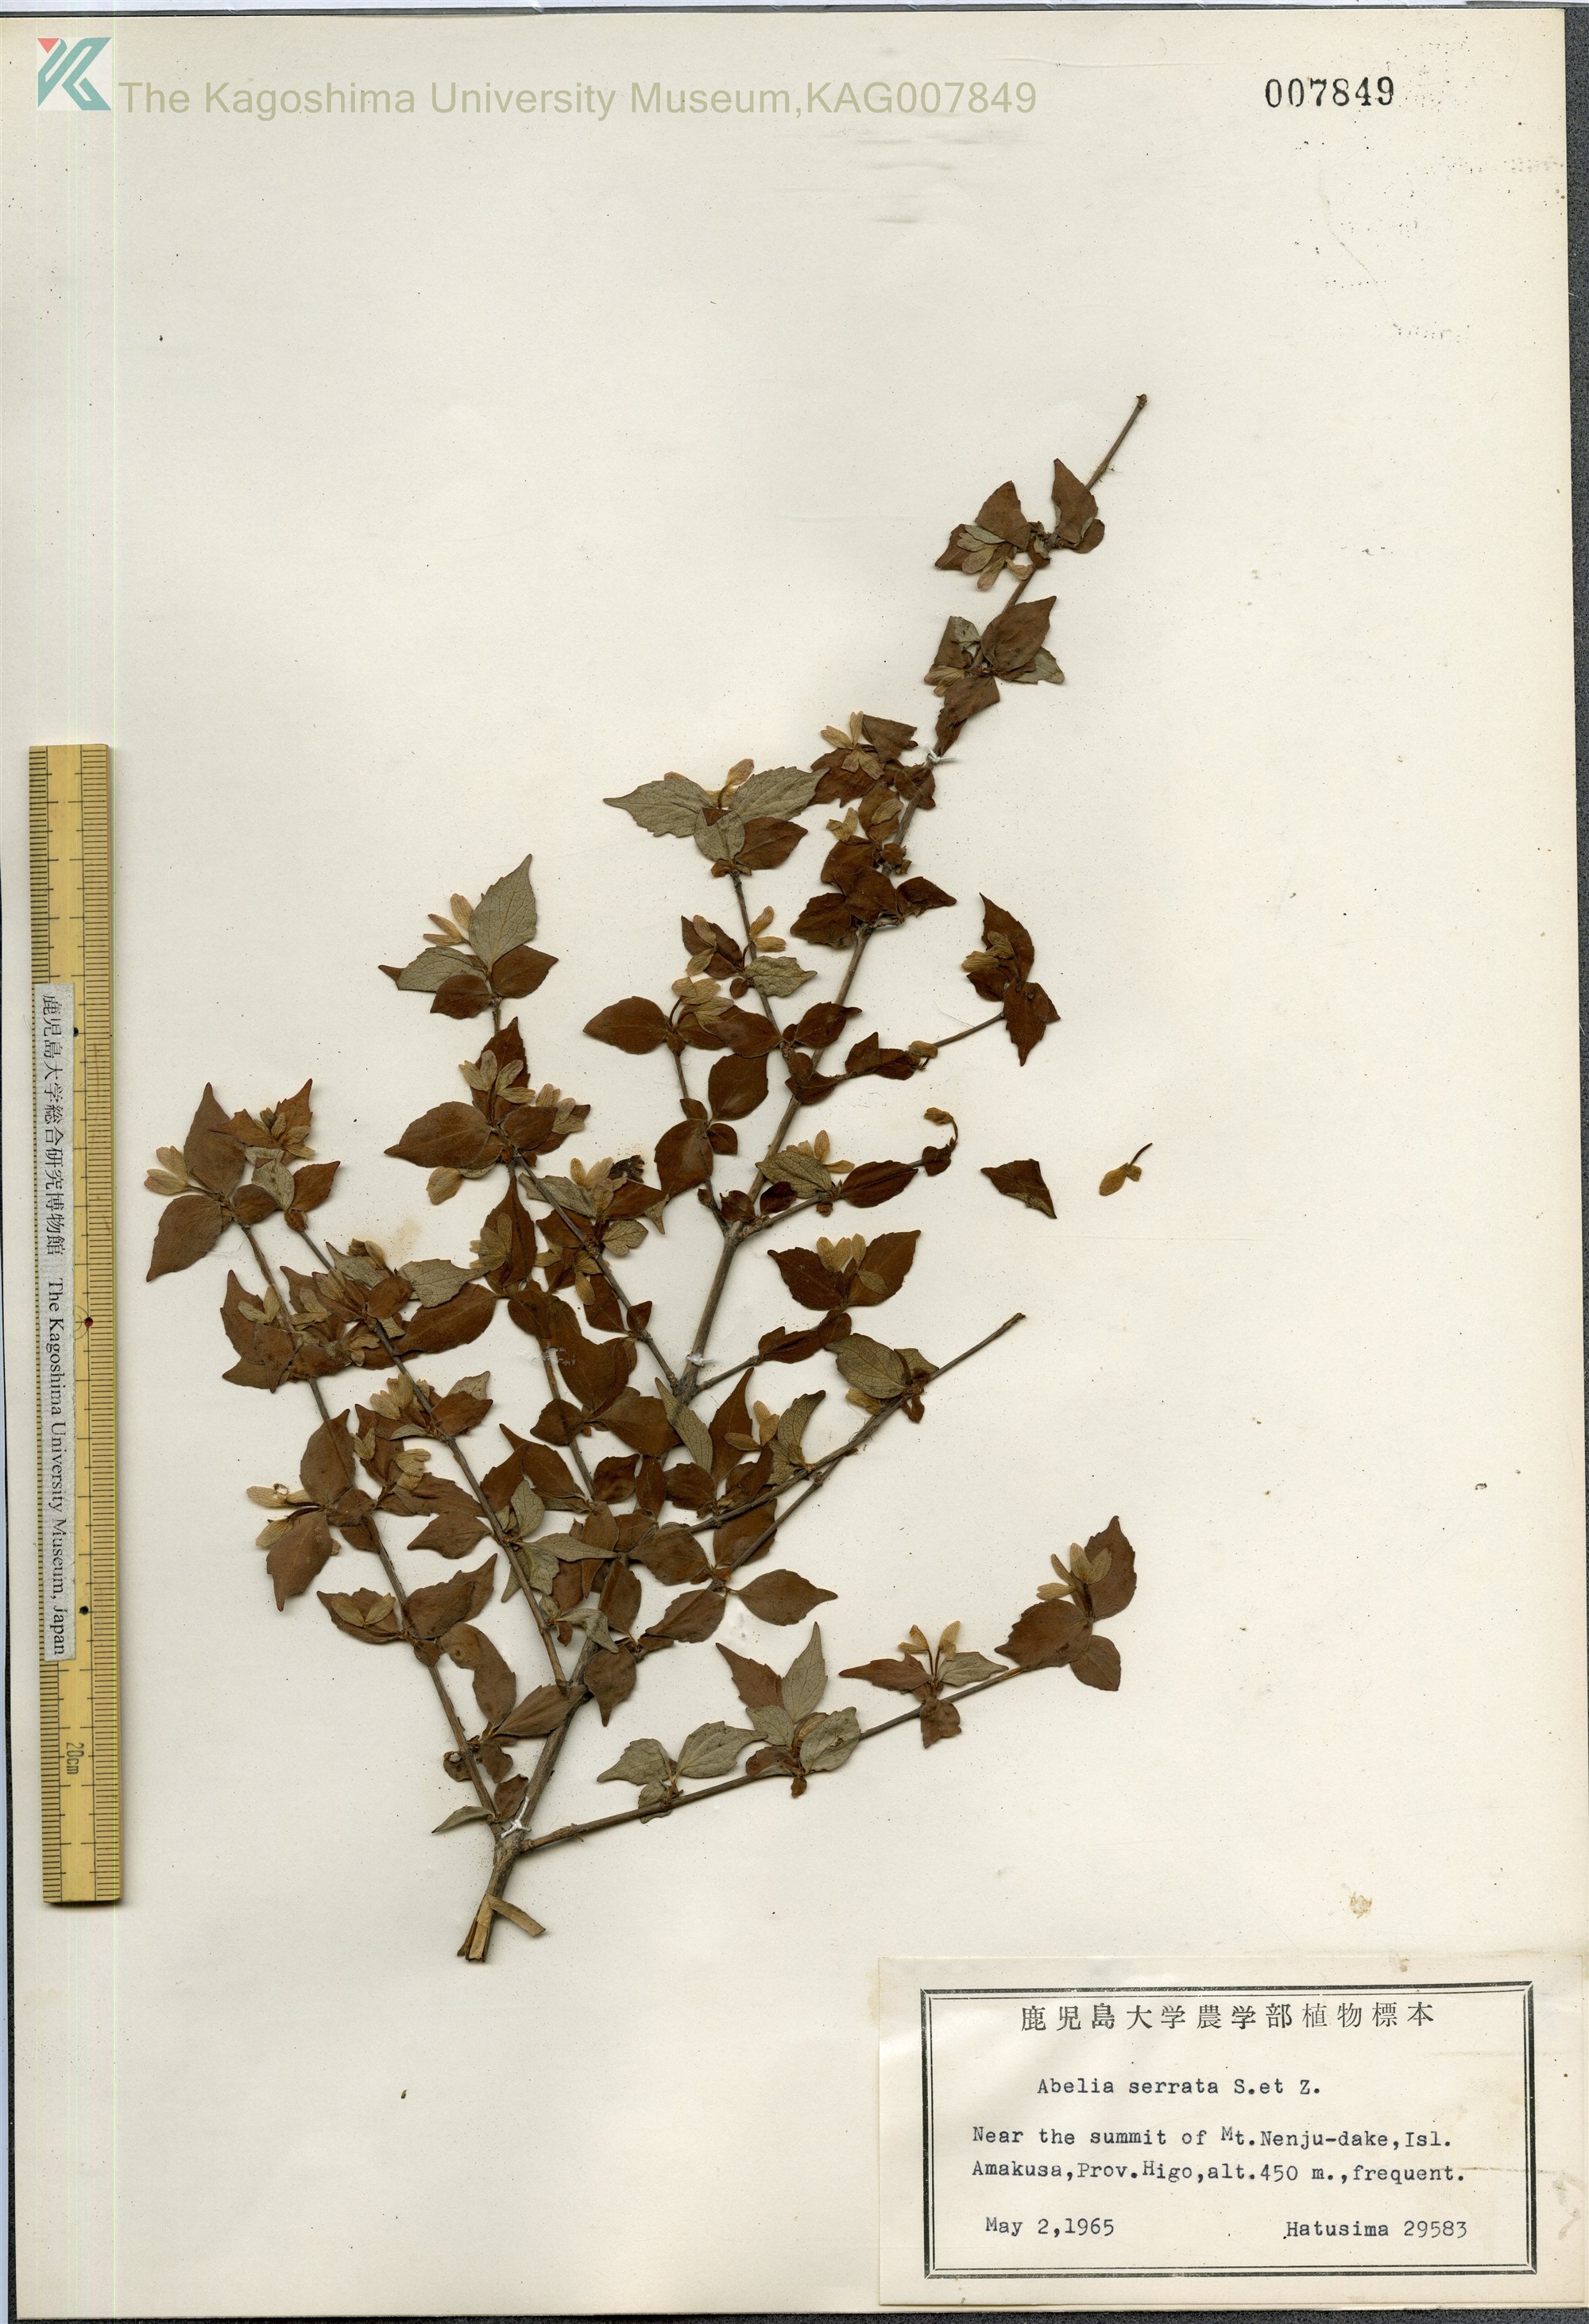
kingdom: Plantae
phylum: Tracheophyta
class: Magnoliopsida
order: Dipsacales
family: Caprifoliaceae
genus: Diabelia
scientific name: Diabelia serrata
